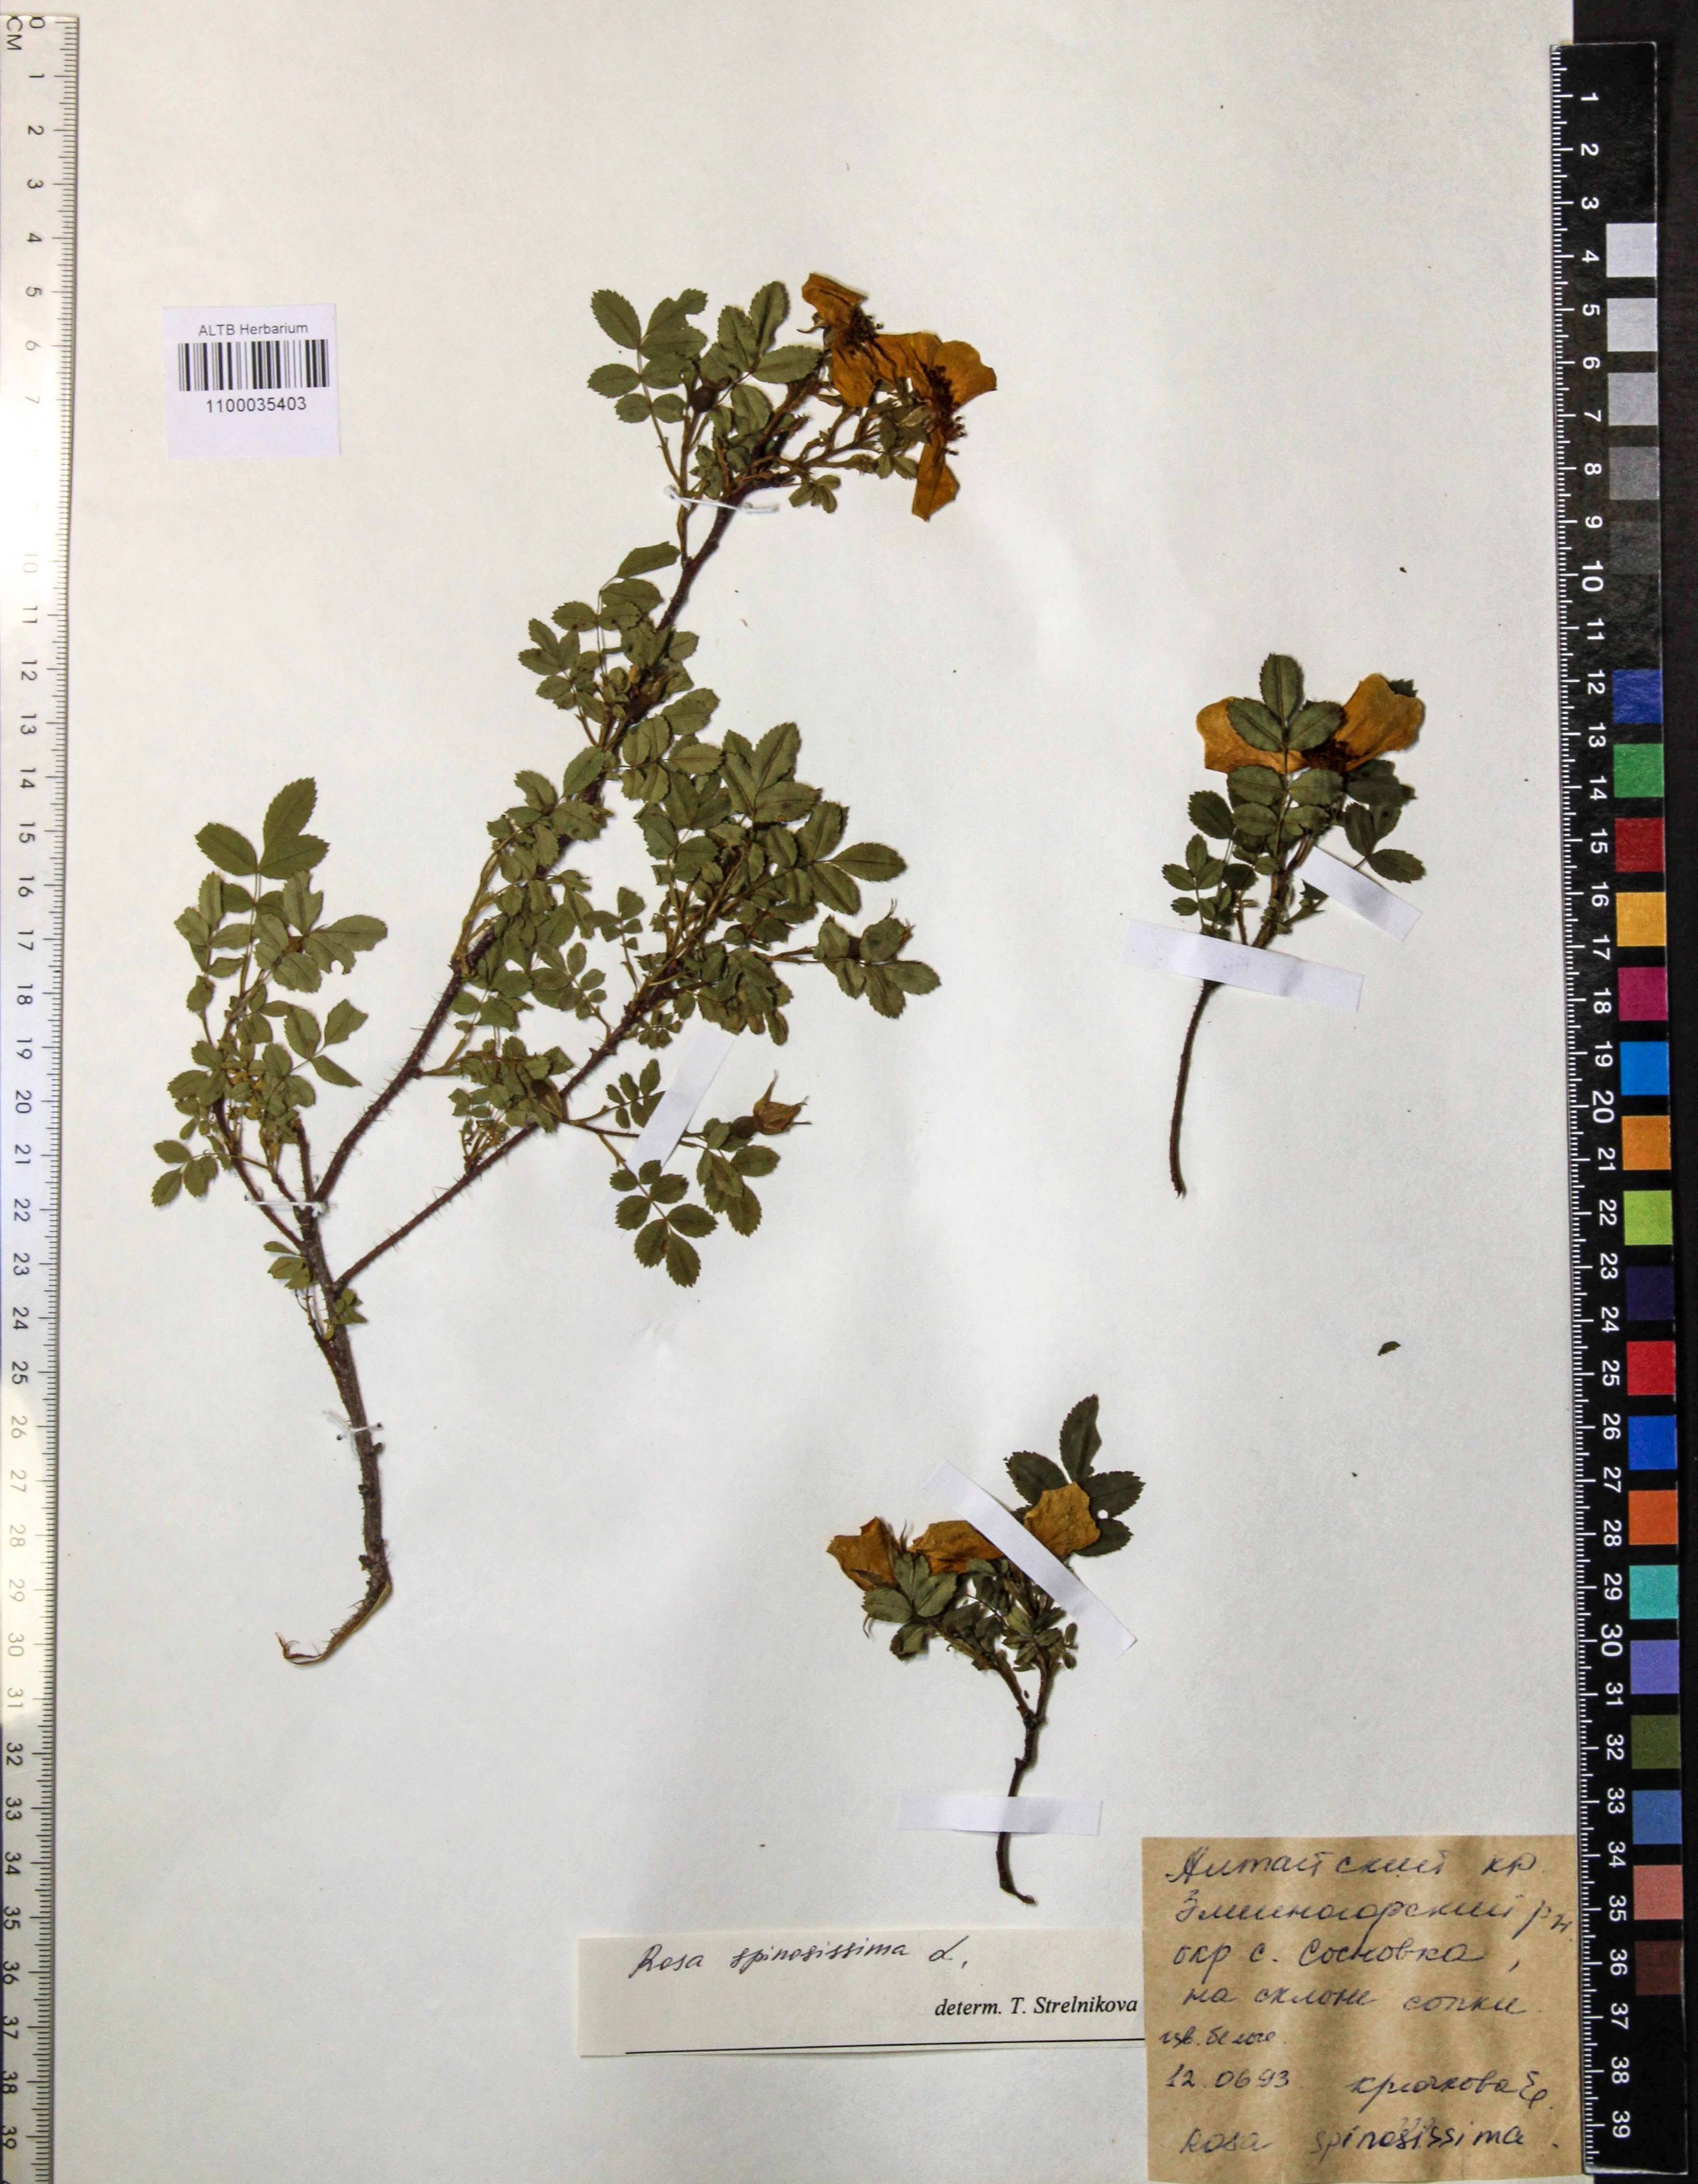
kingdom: Plantae
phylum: Tracheophyta
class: Magnoliopsida
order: Rosales
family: Rosaceae
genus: Rosa
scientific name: Rosa spinosissima
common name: Burnet rose
